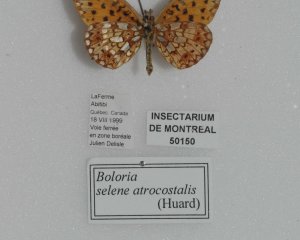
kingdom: Animalia
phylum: Arthropoda
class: Insecta
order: Lepidoptera
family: Nymphalidae
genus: Boloria
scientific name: Boloria selene
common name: Silver-bordered Fritillary
